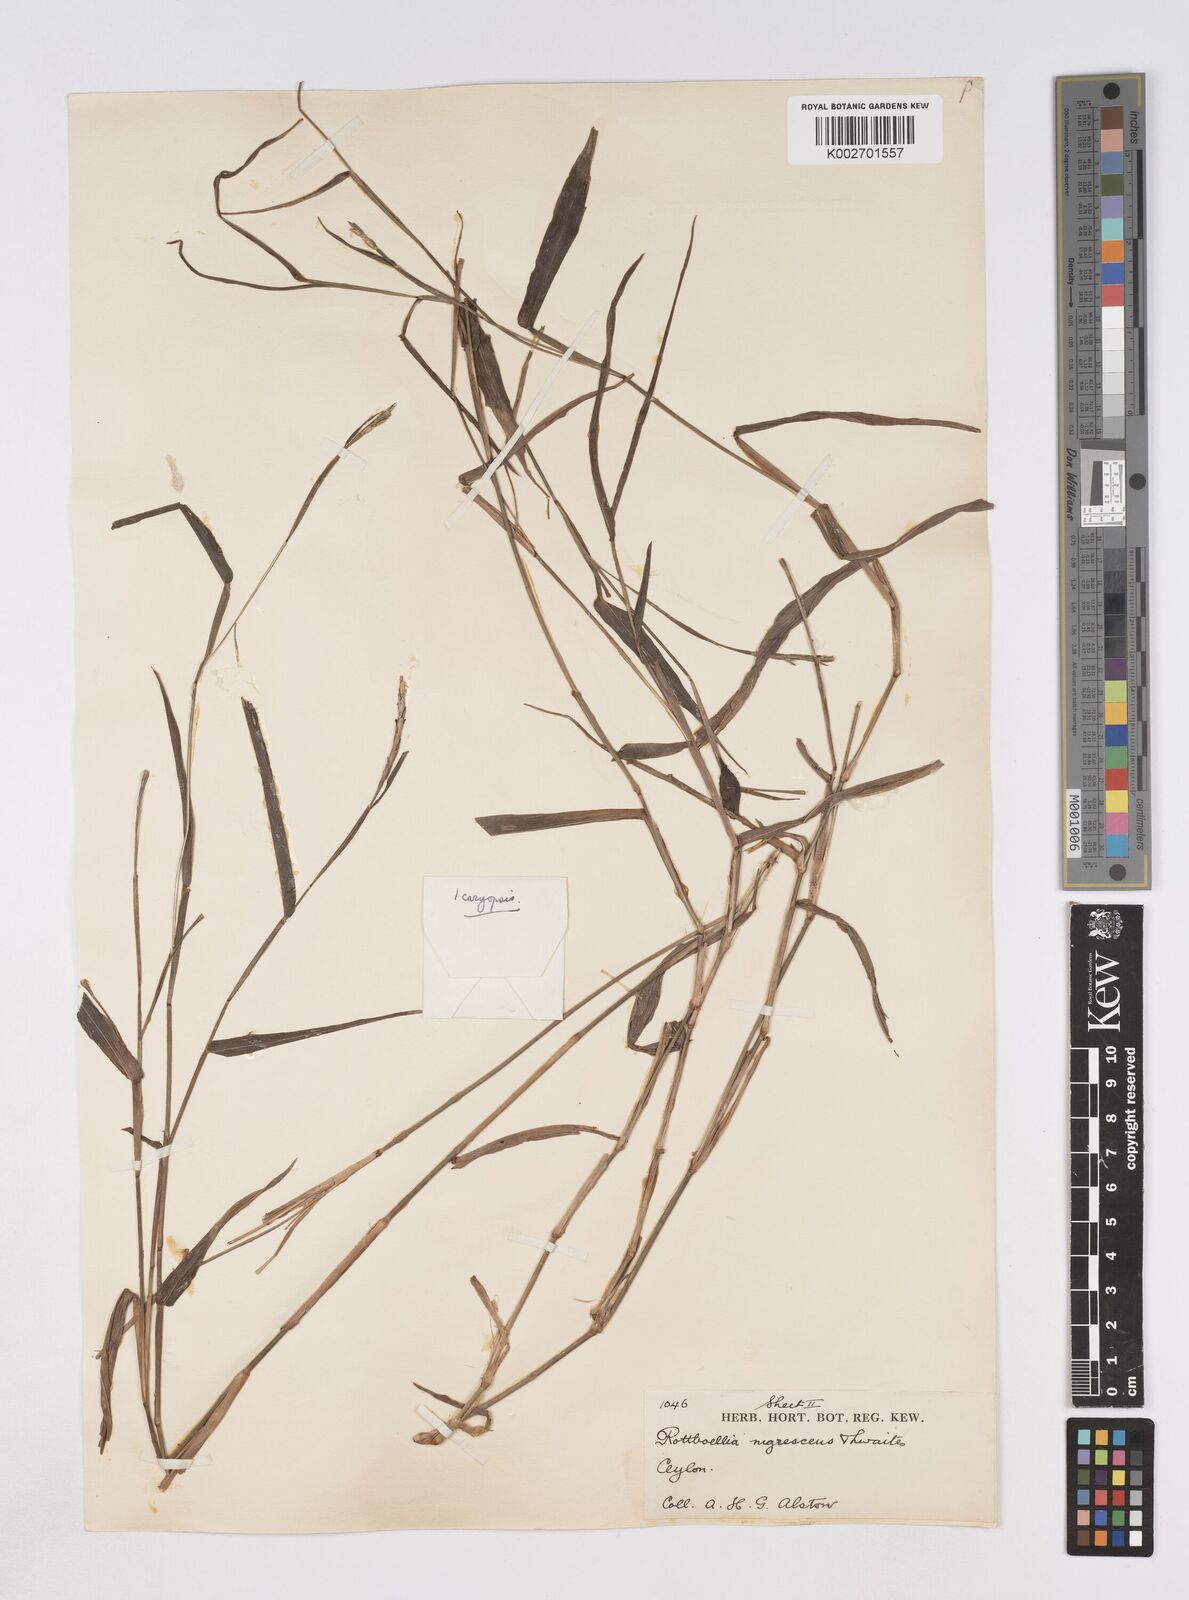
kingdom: Plantae
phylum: Tracheophyta
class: Liliopsida
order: Poales
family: Poaceae
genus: Heteropholis
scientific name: Heteropholis nigrescens
